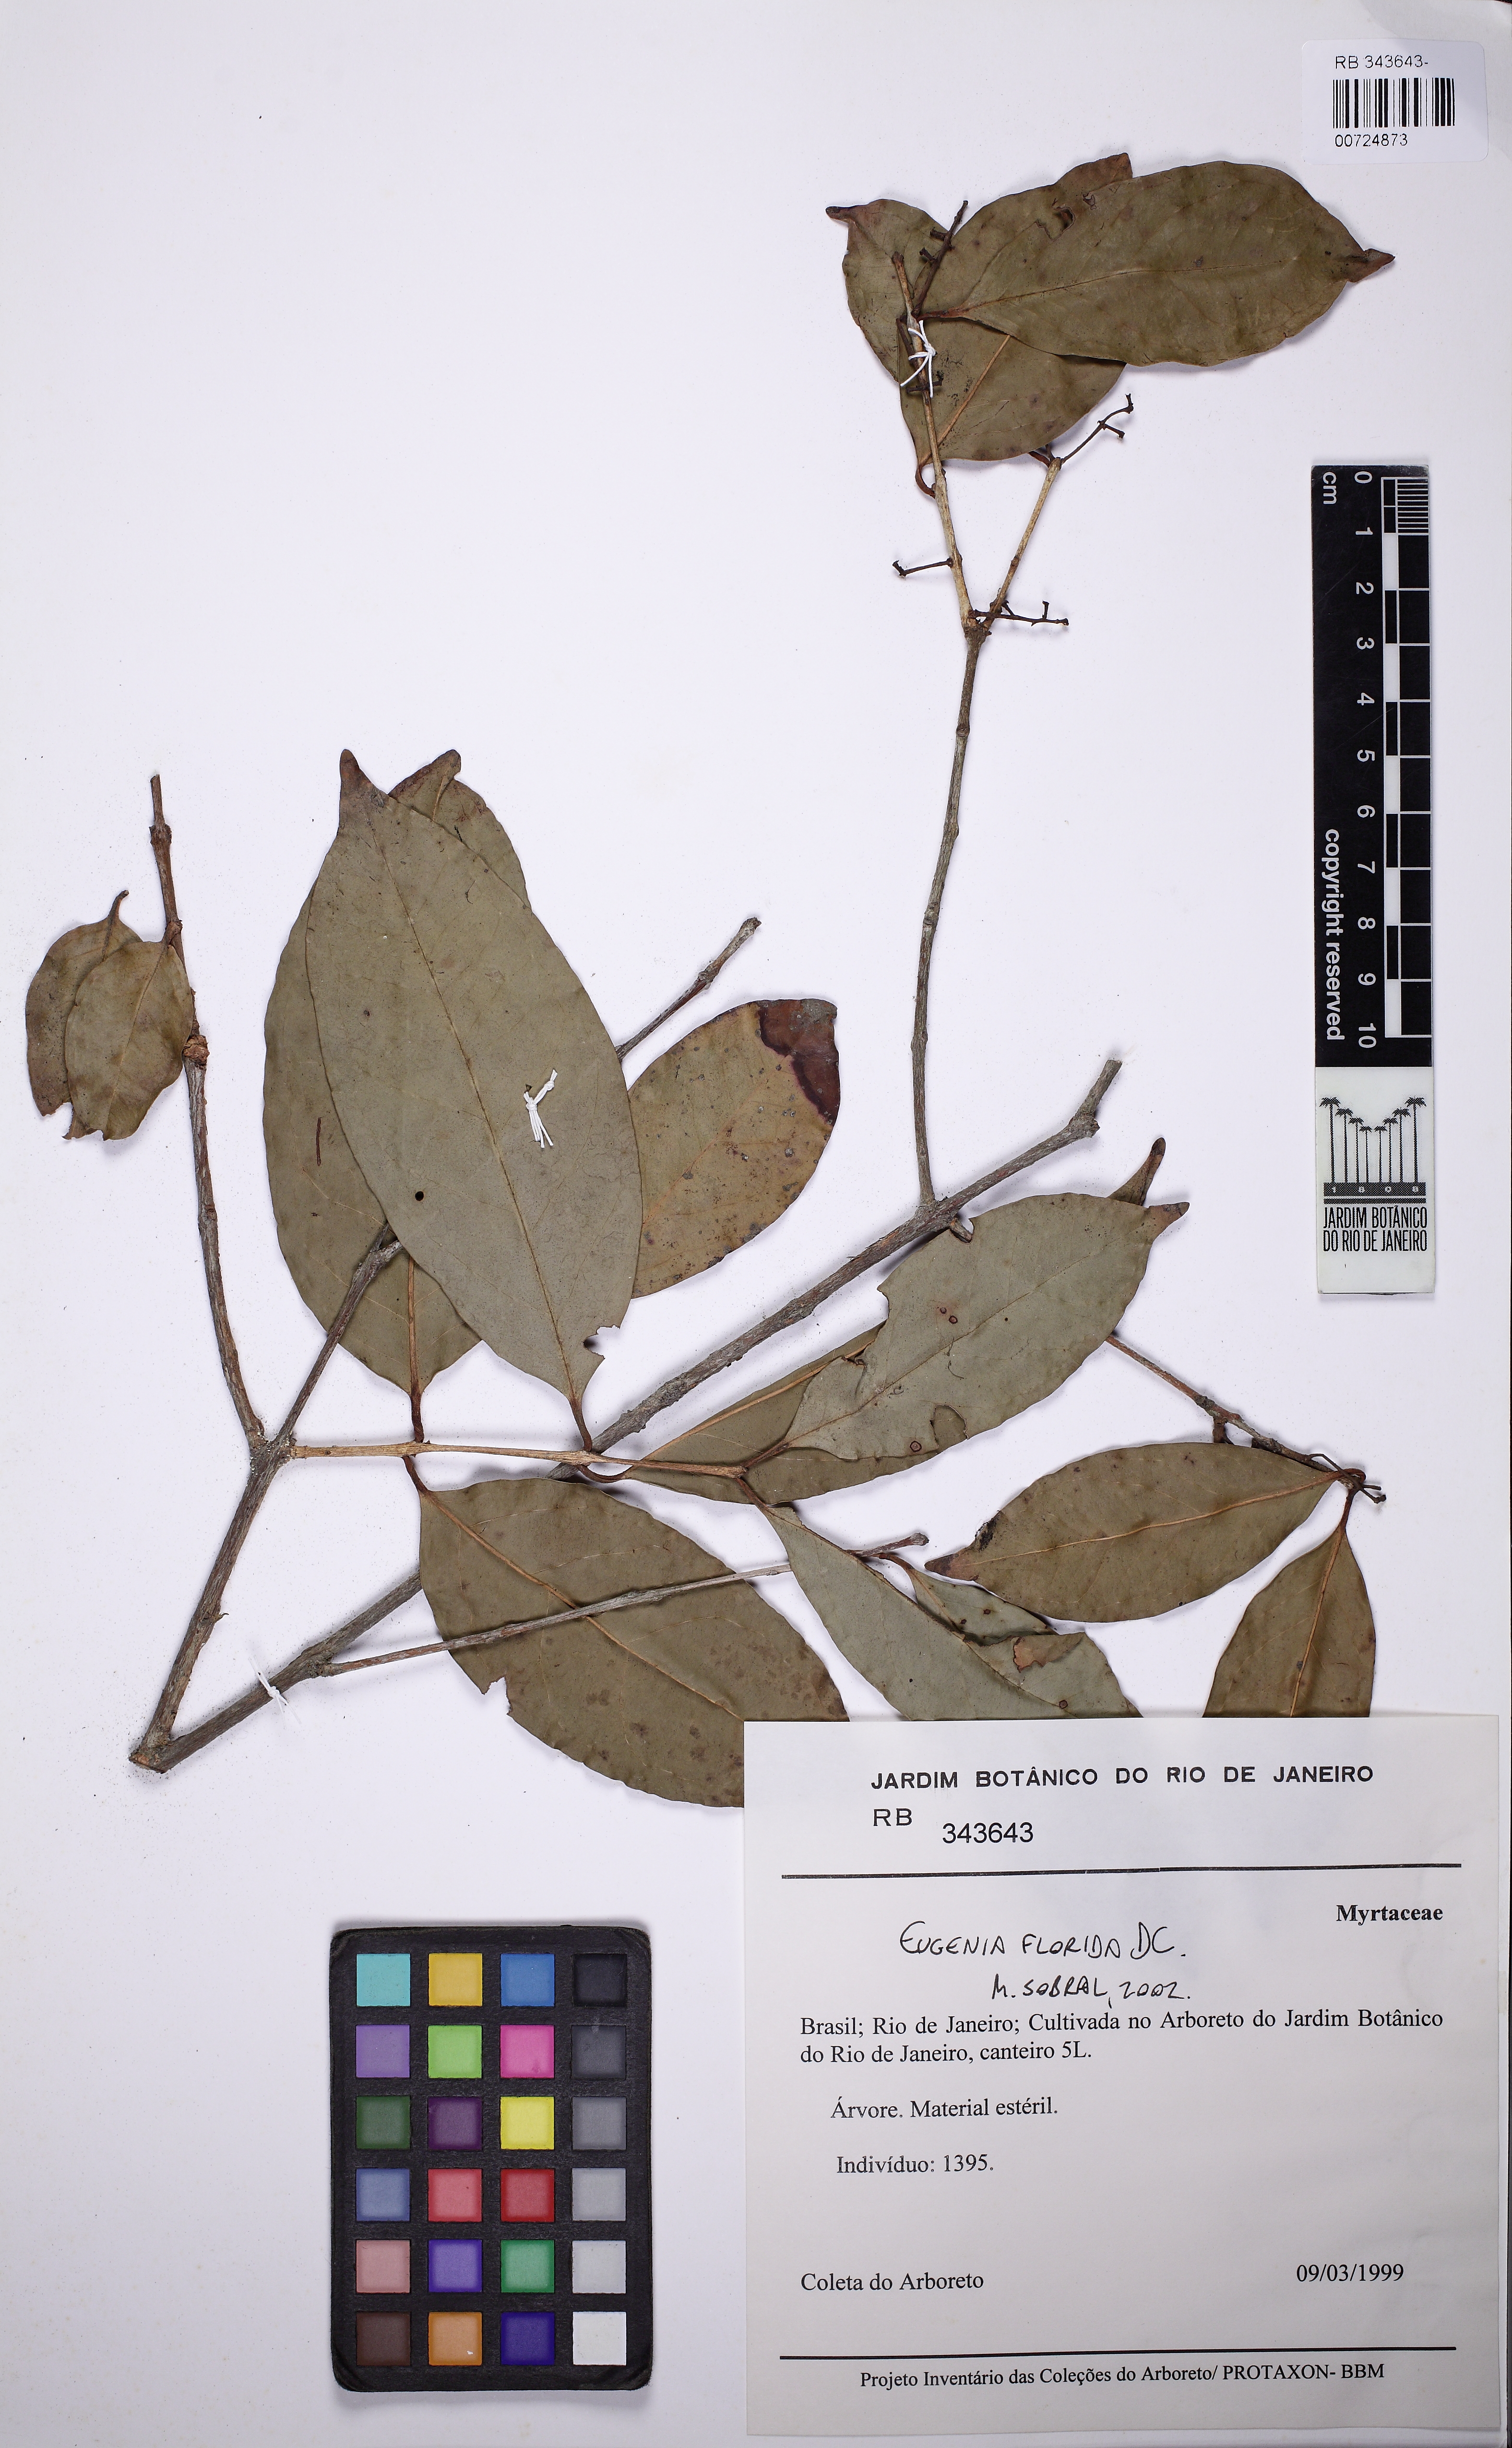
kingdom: Plantae
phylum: Tracheophyta
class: Magnoliopsida
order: Myrtales
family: Myrtaceae
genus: Eugenia
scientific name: Eugenia florida
